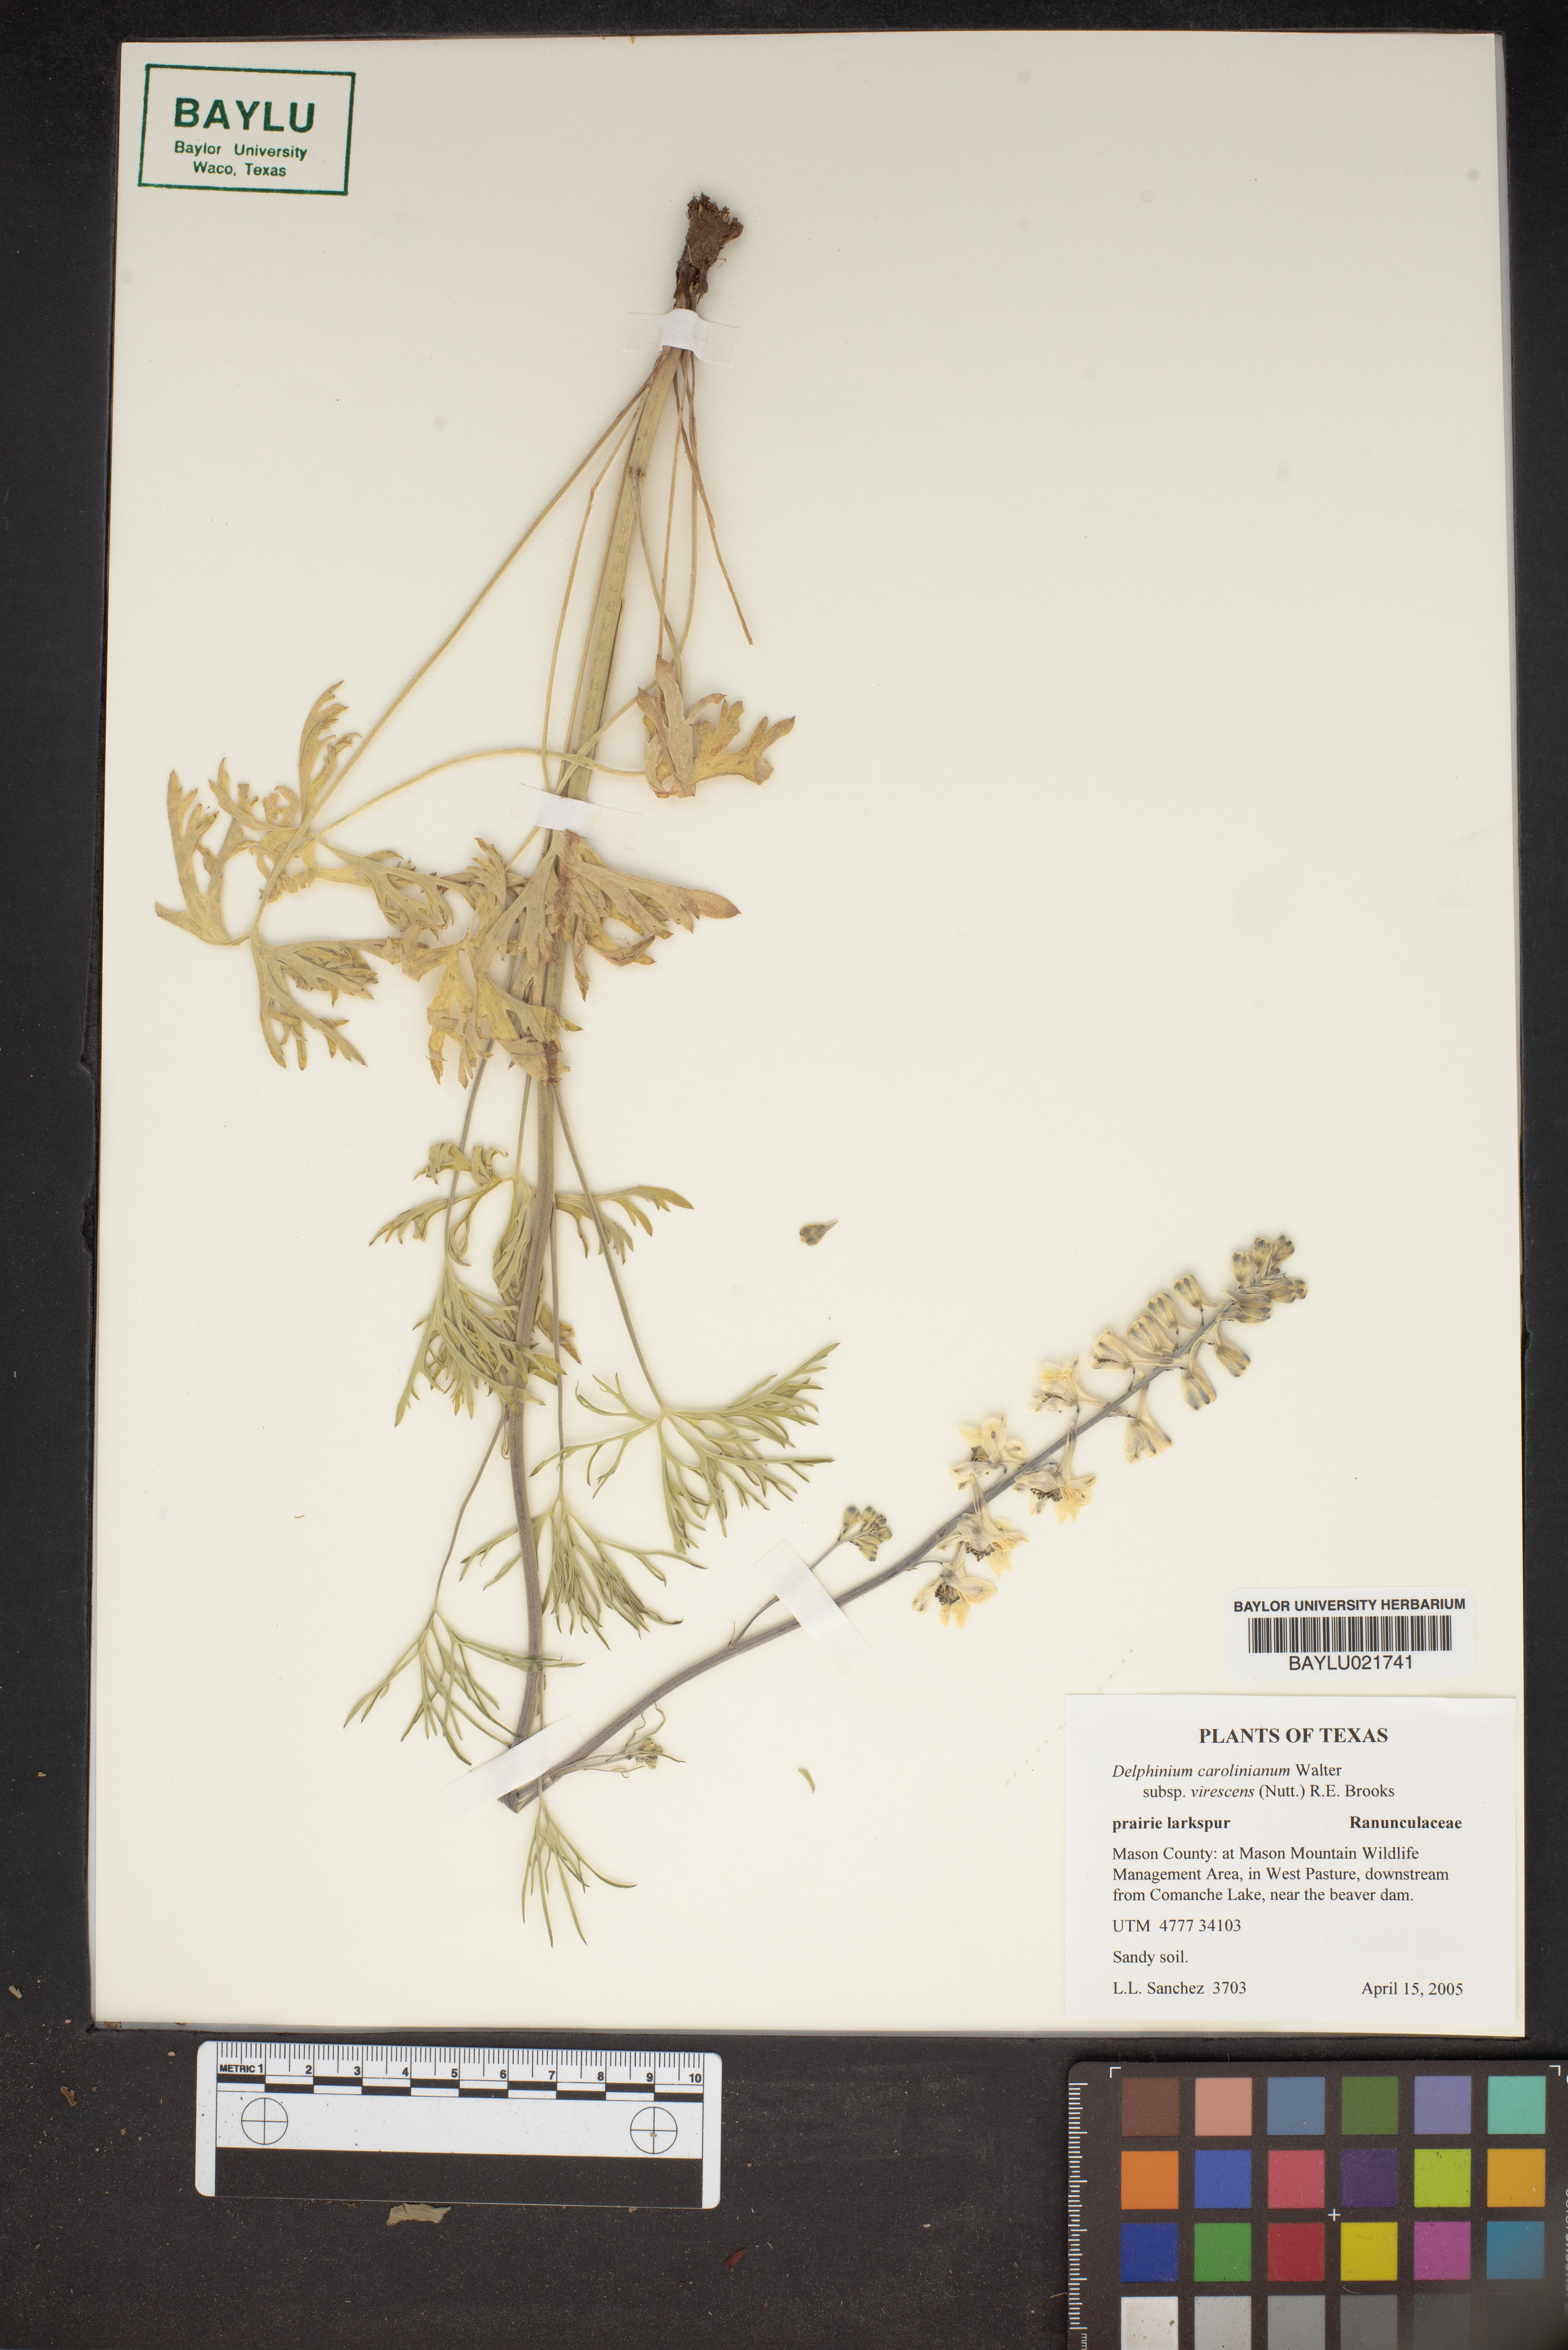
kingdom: Plantae
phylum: Tracheophyta
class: Magnoliopsida
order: Ranunculales
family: Ranunculaceae
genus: Delphinium
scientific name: Delphinium carolinianum
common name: Carolina larkspur
